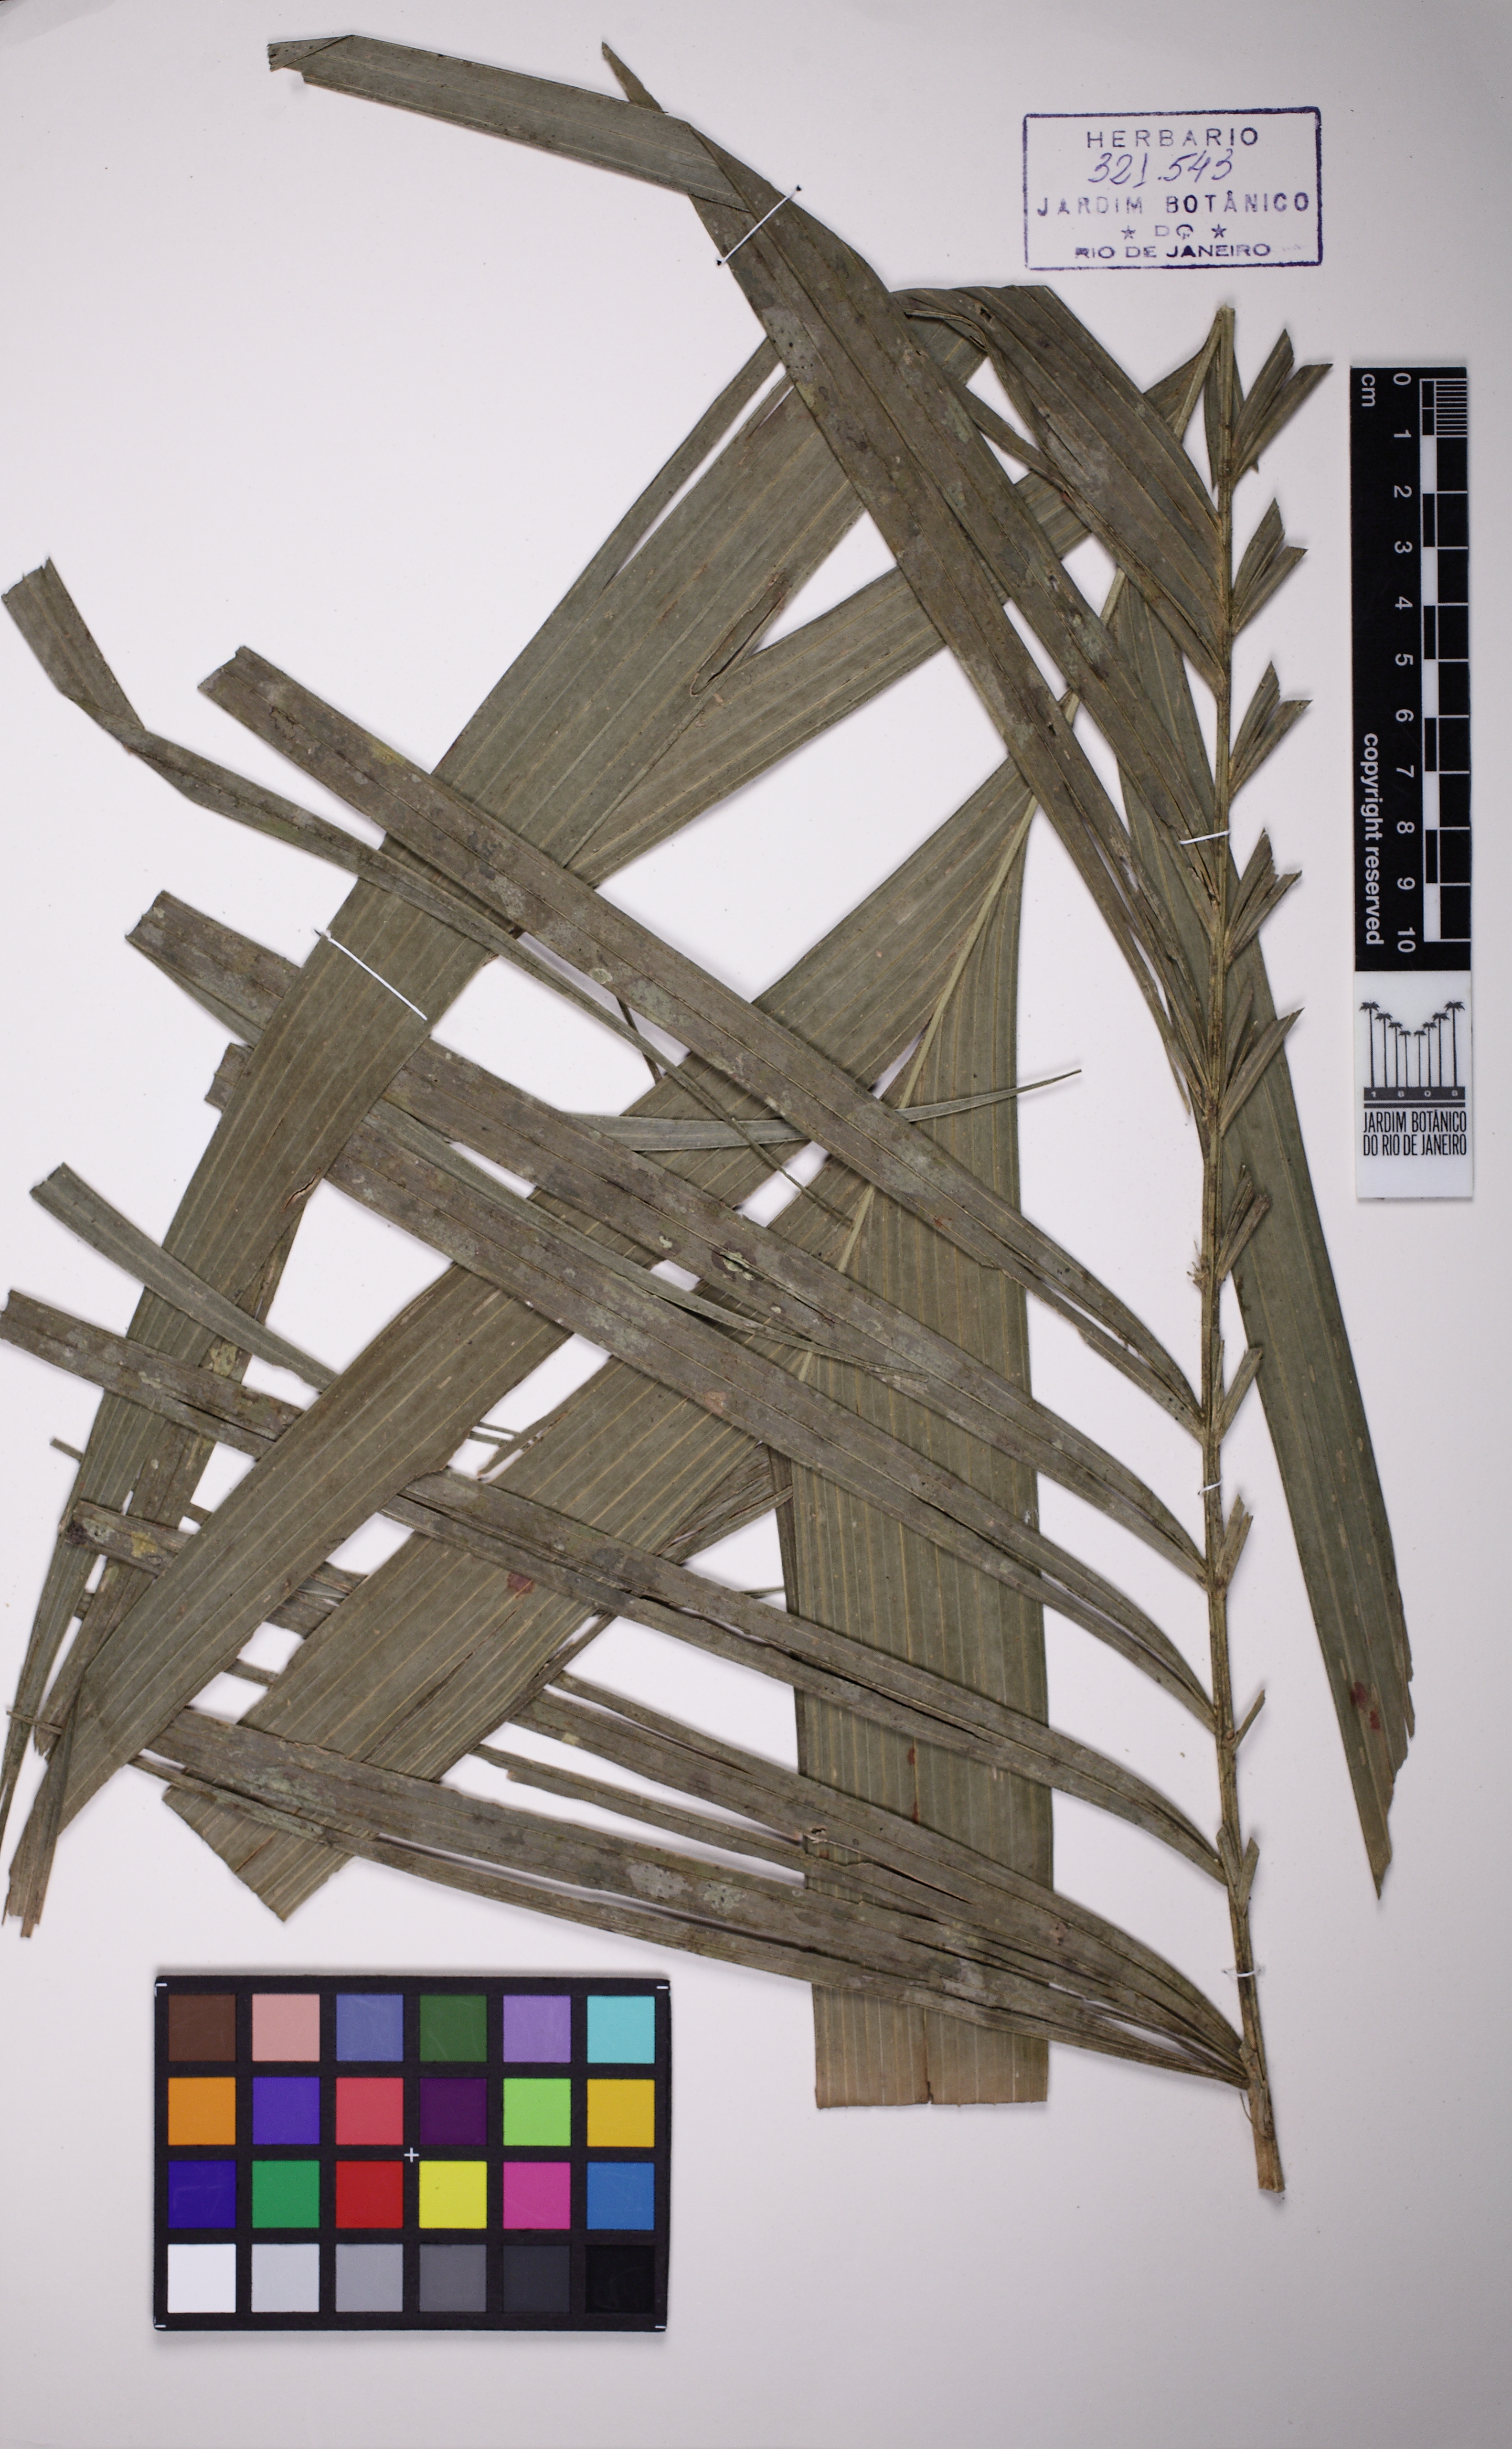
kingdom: Plantae
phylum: Tracheophyta
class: Liliopsida
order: Arecales
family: Arecaceae
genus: Geonoma
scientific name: Geonoma pohliana
